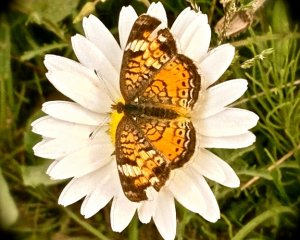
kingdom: Animalia
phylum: Arthropoda
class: Insecta
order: Lepidoptera
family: Nymphalidae
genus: Phyciodes
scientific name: Phyciodes tharos
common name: Pearl Crescent
